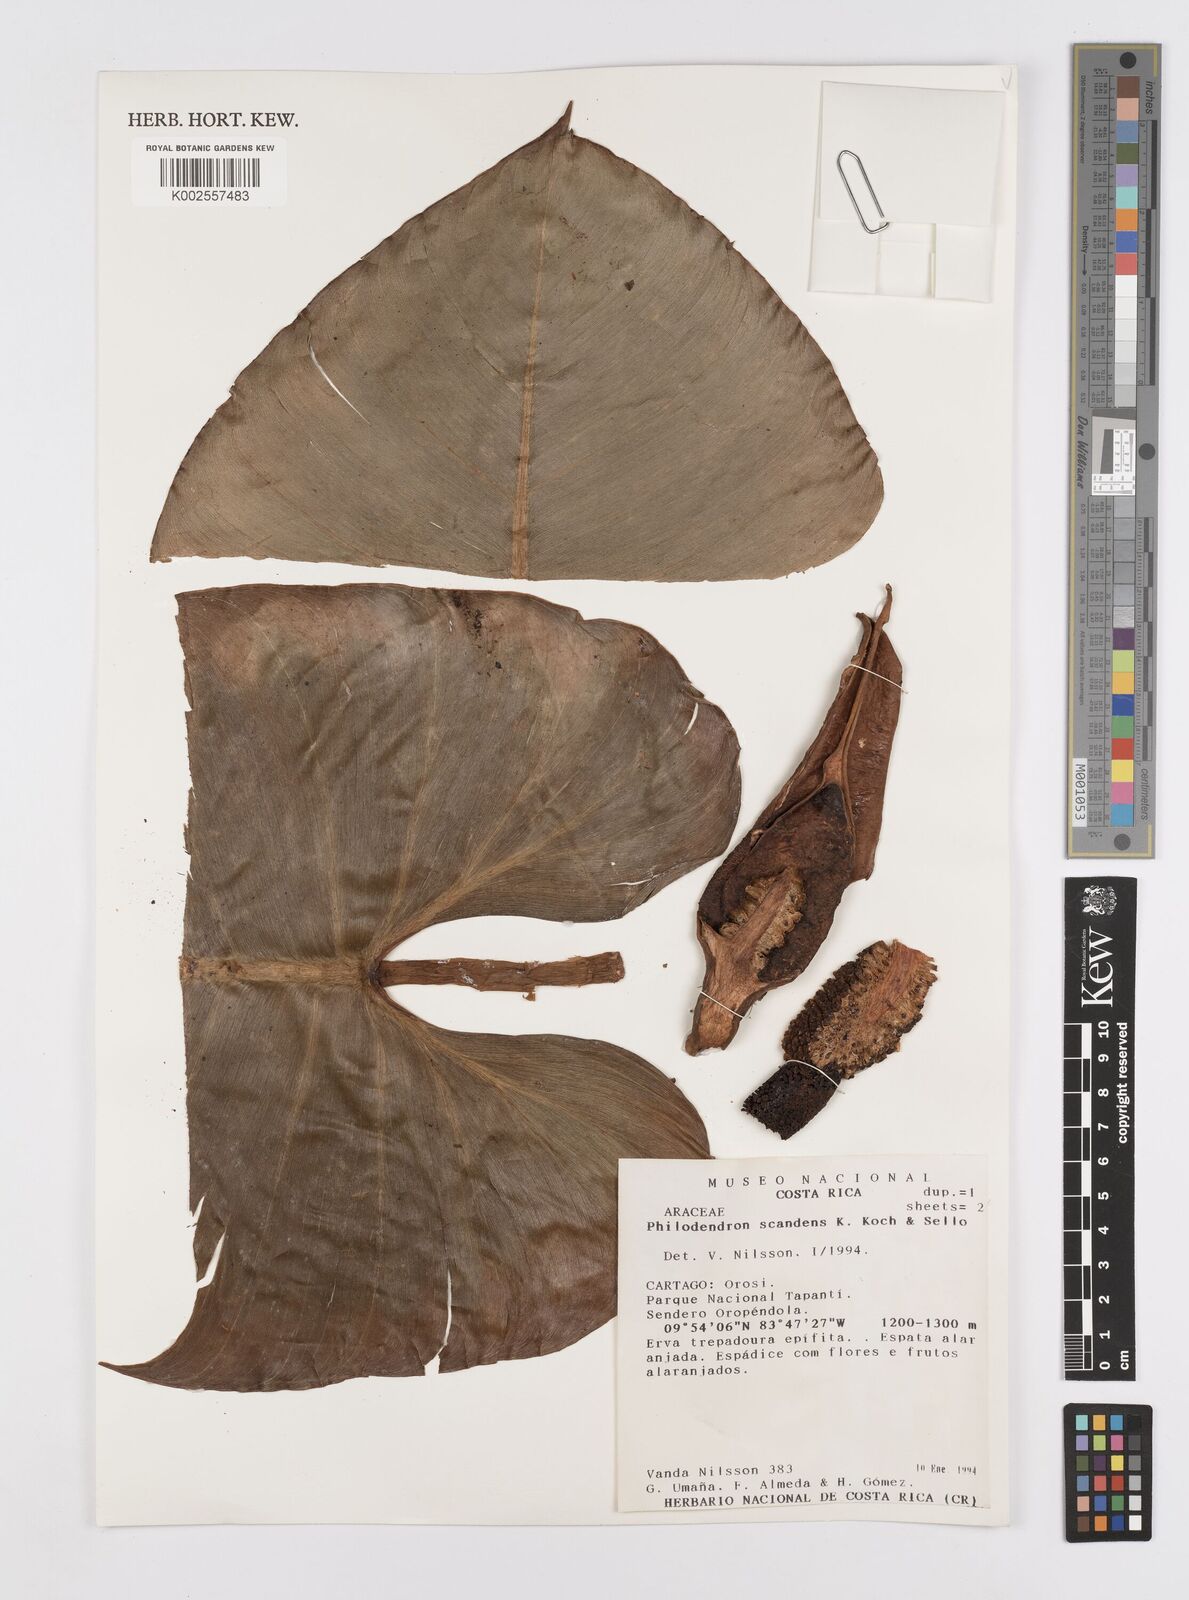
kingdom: Plantae
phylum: Tracheophyta
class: Liliopsida
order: Alismatales
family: Araceae
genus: Philodendron
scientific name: Philodendron hederaceum
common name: Vilevine
